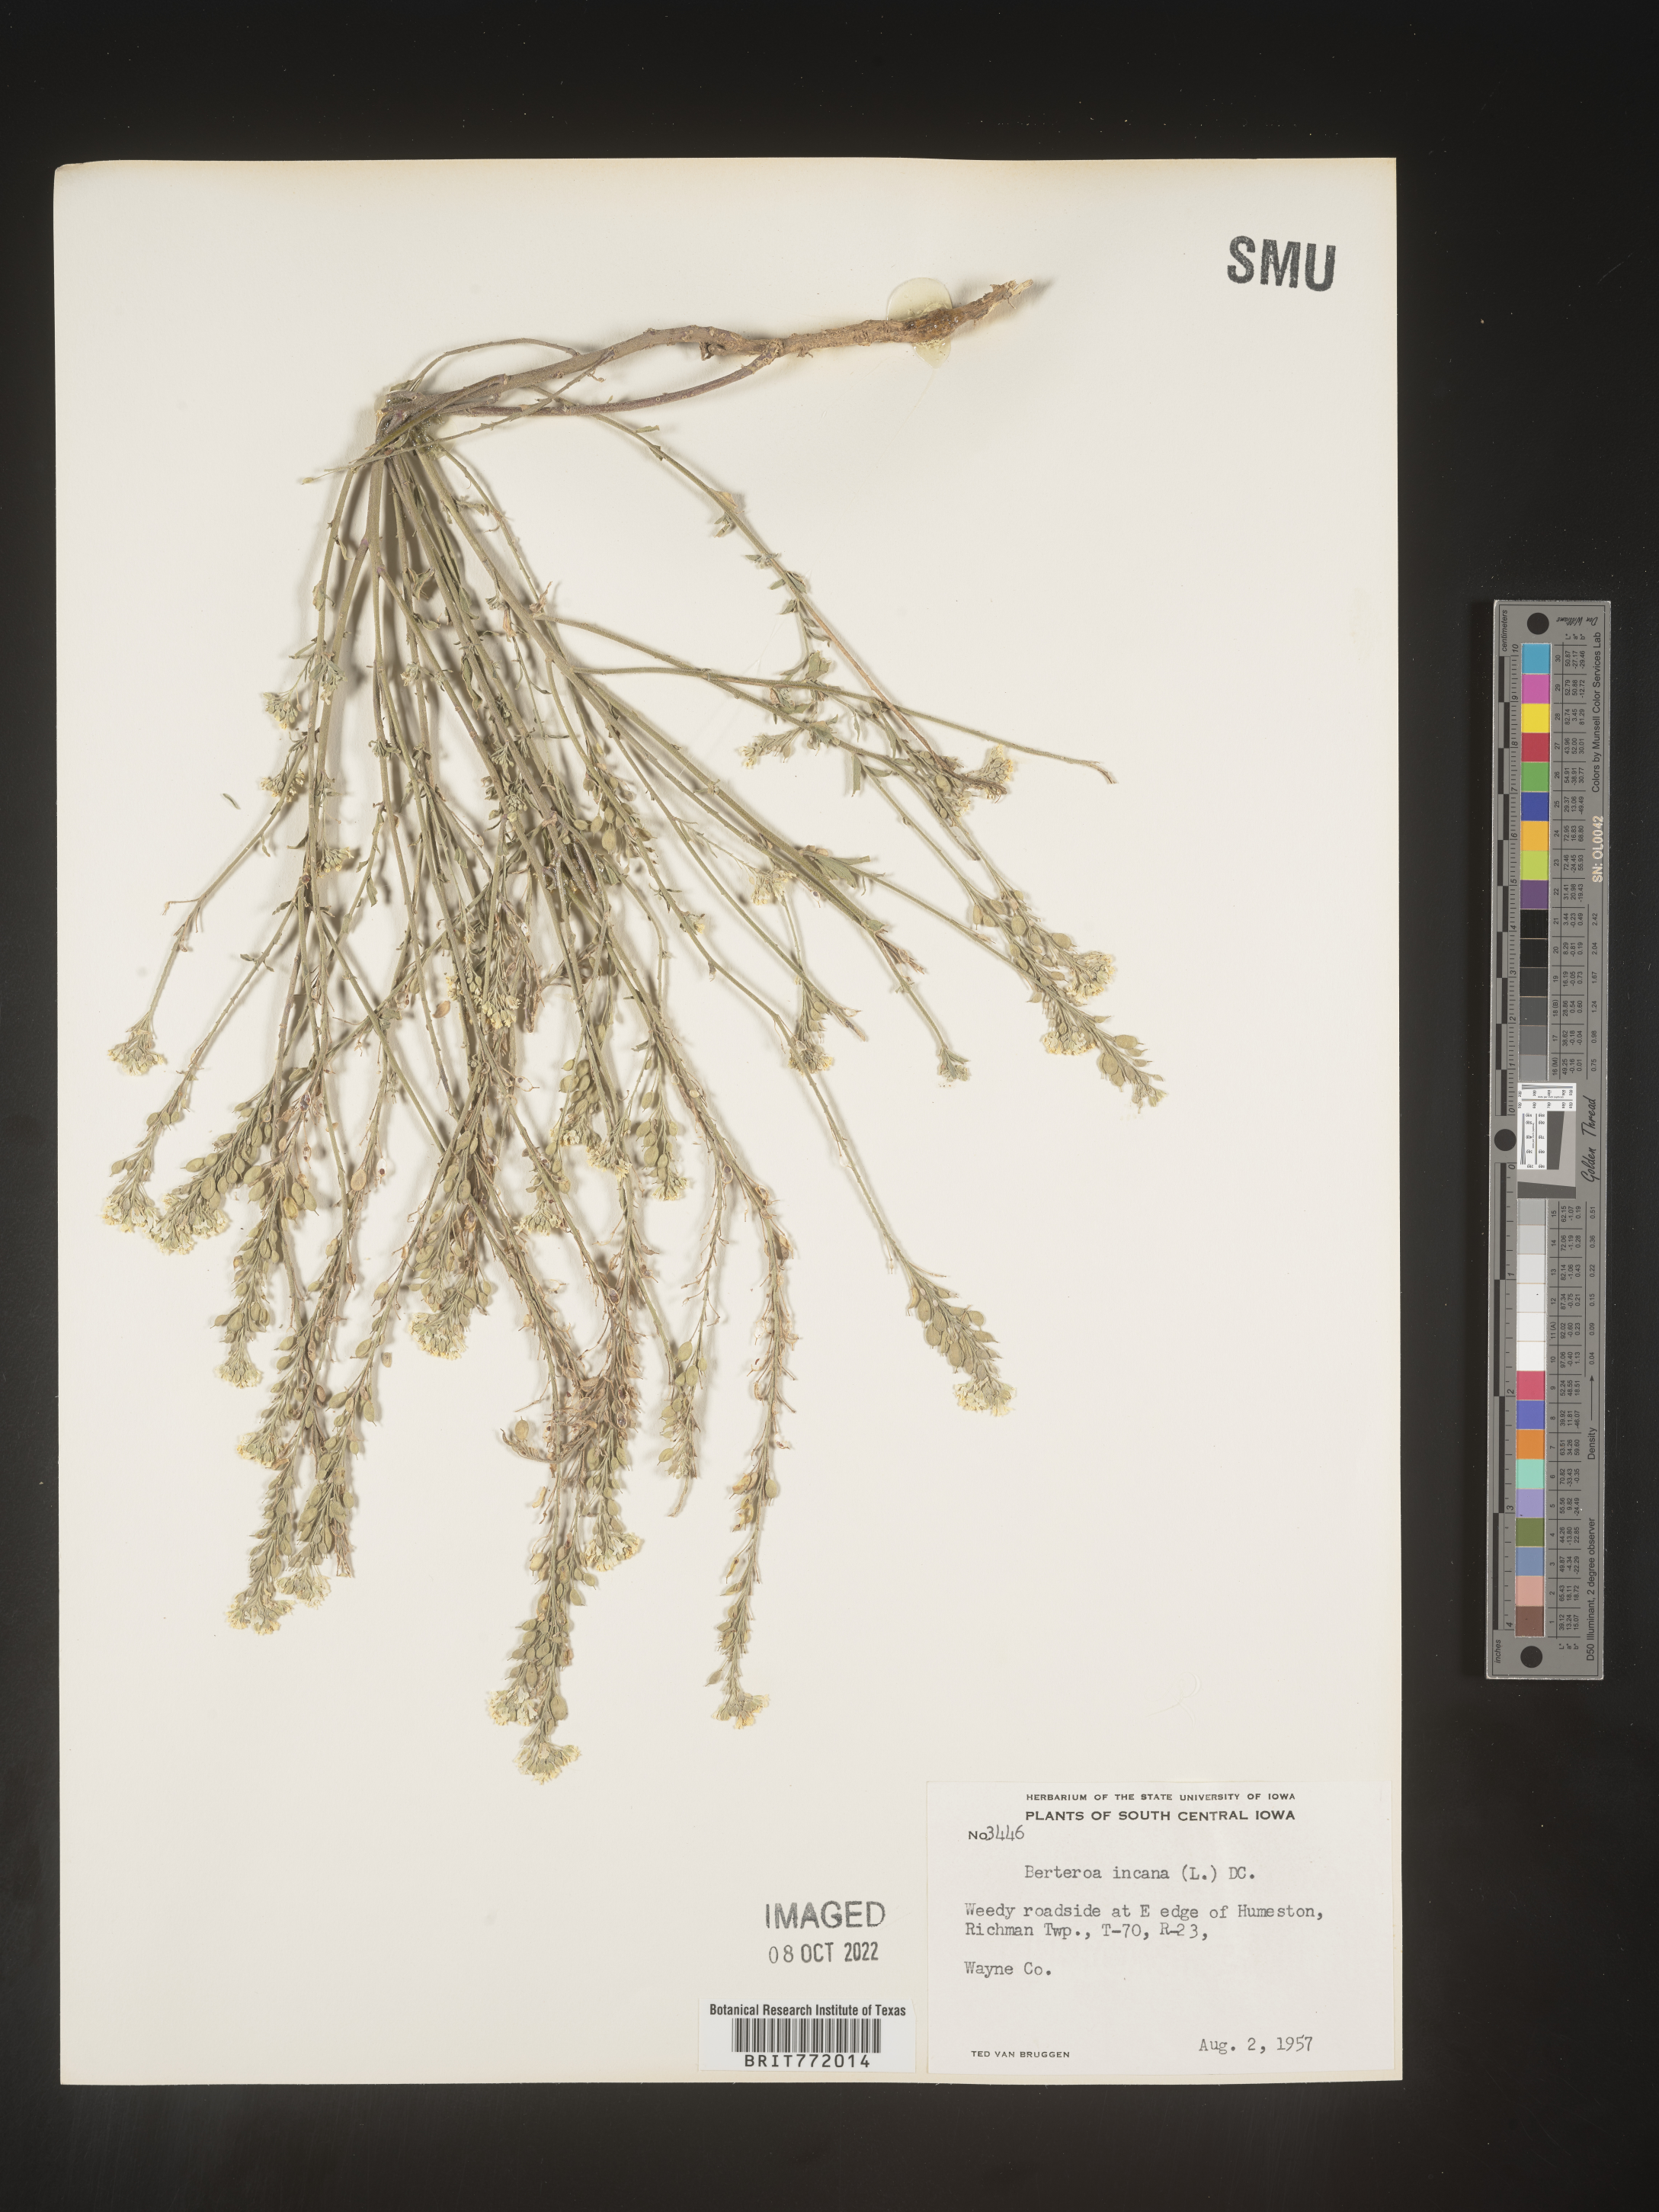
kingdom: Plantae
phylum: Tracheophyta
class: Magnoliopsida
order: Brassicales
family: Brassicaceae
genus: Berteroa
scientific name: Berteroa incana
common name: Hoary alison
